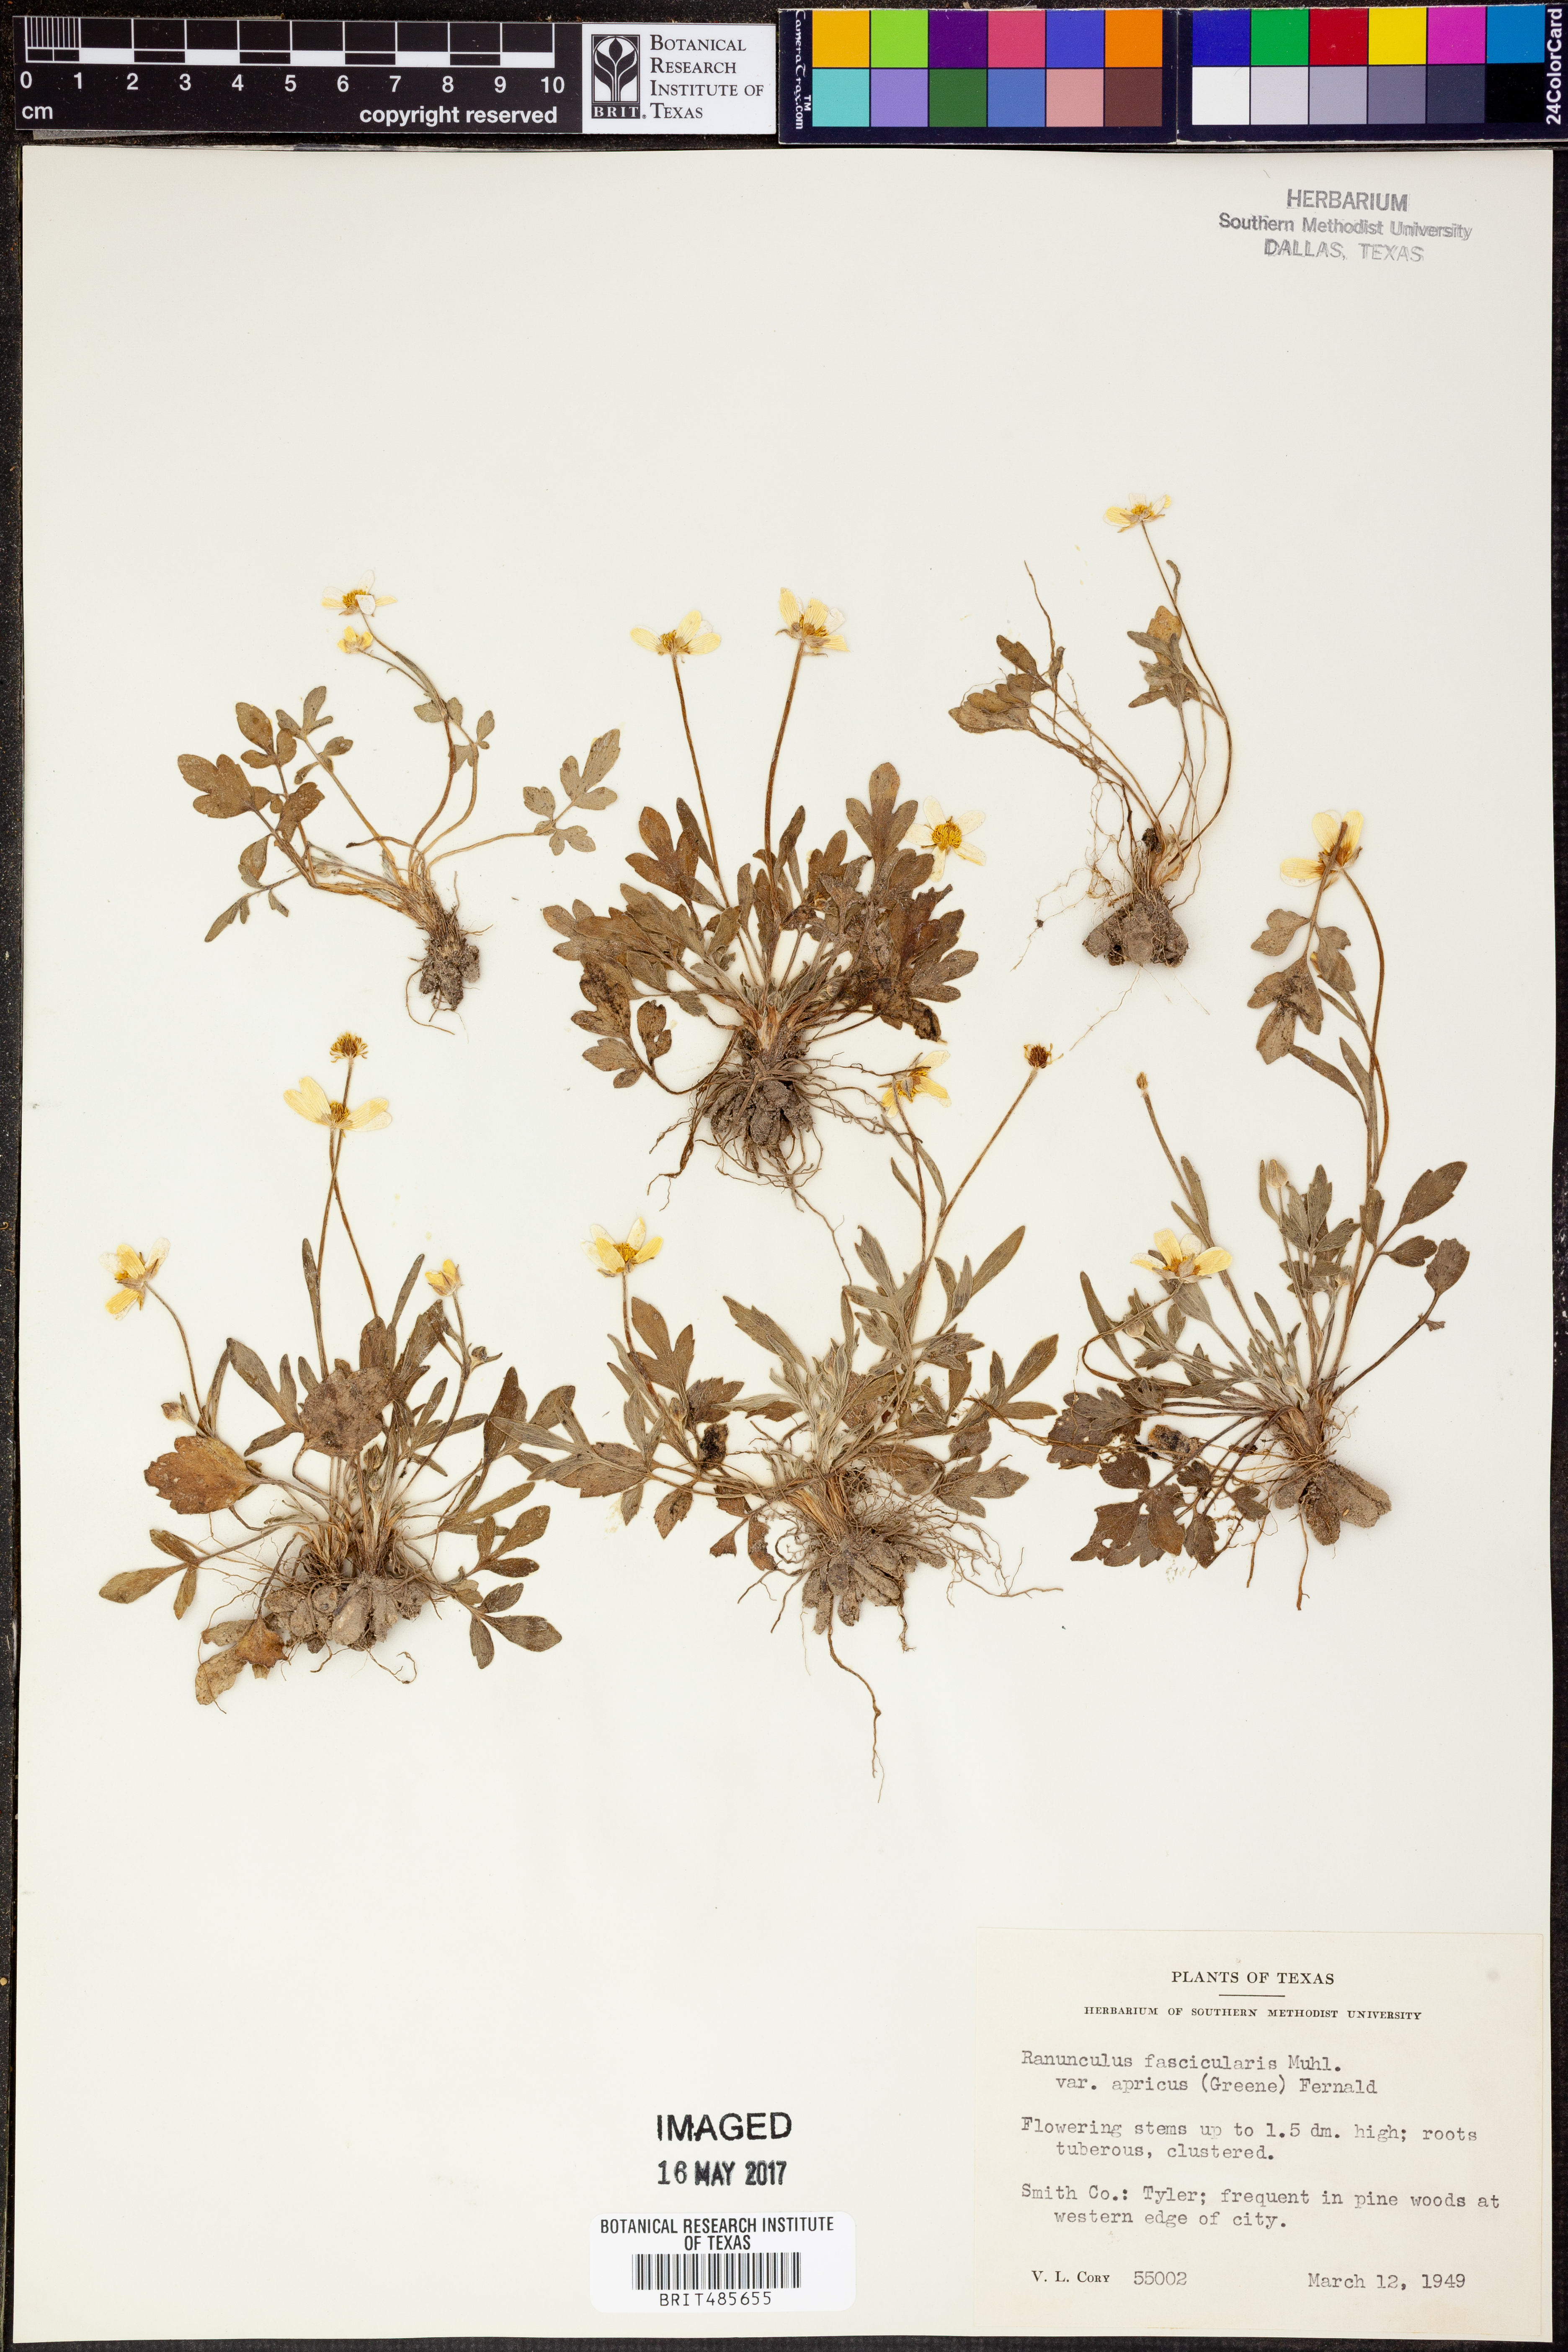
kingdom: Plantae
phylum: Tracheophyta
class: Magnoliopsida
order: Ranunculales
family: Ranunculaceae
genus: Ranunculus
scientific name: Ranunculus fascicularis
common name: Early buttercup
